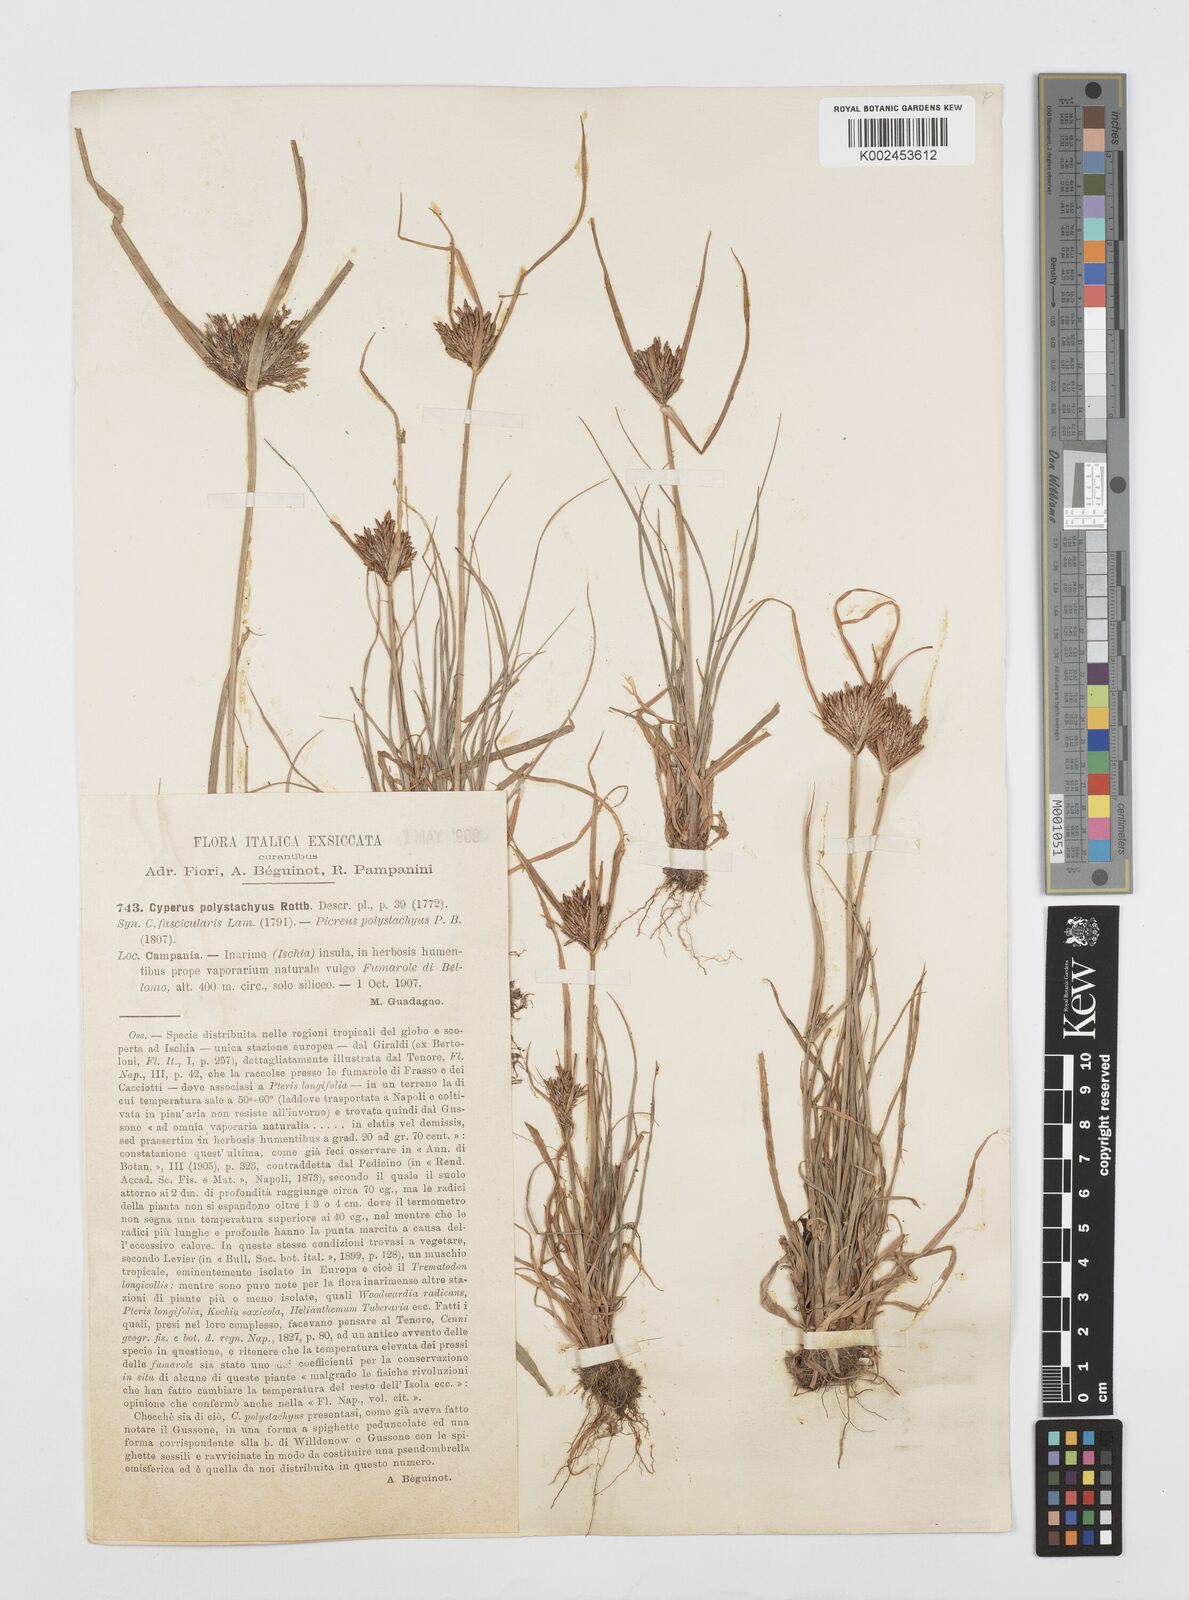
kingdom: Plantae
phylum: Tracheophyta
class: Liliopsida
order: Poales
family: Cyperaceae
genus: Cyperus
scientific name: Cyperus polystachyos
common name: Bunchy flat sedge
